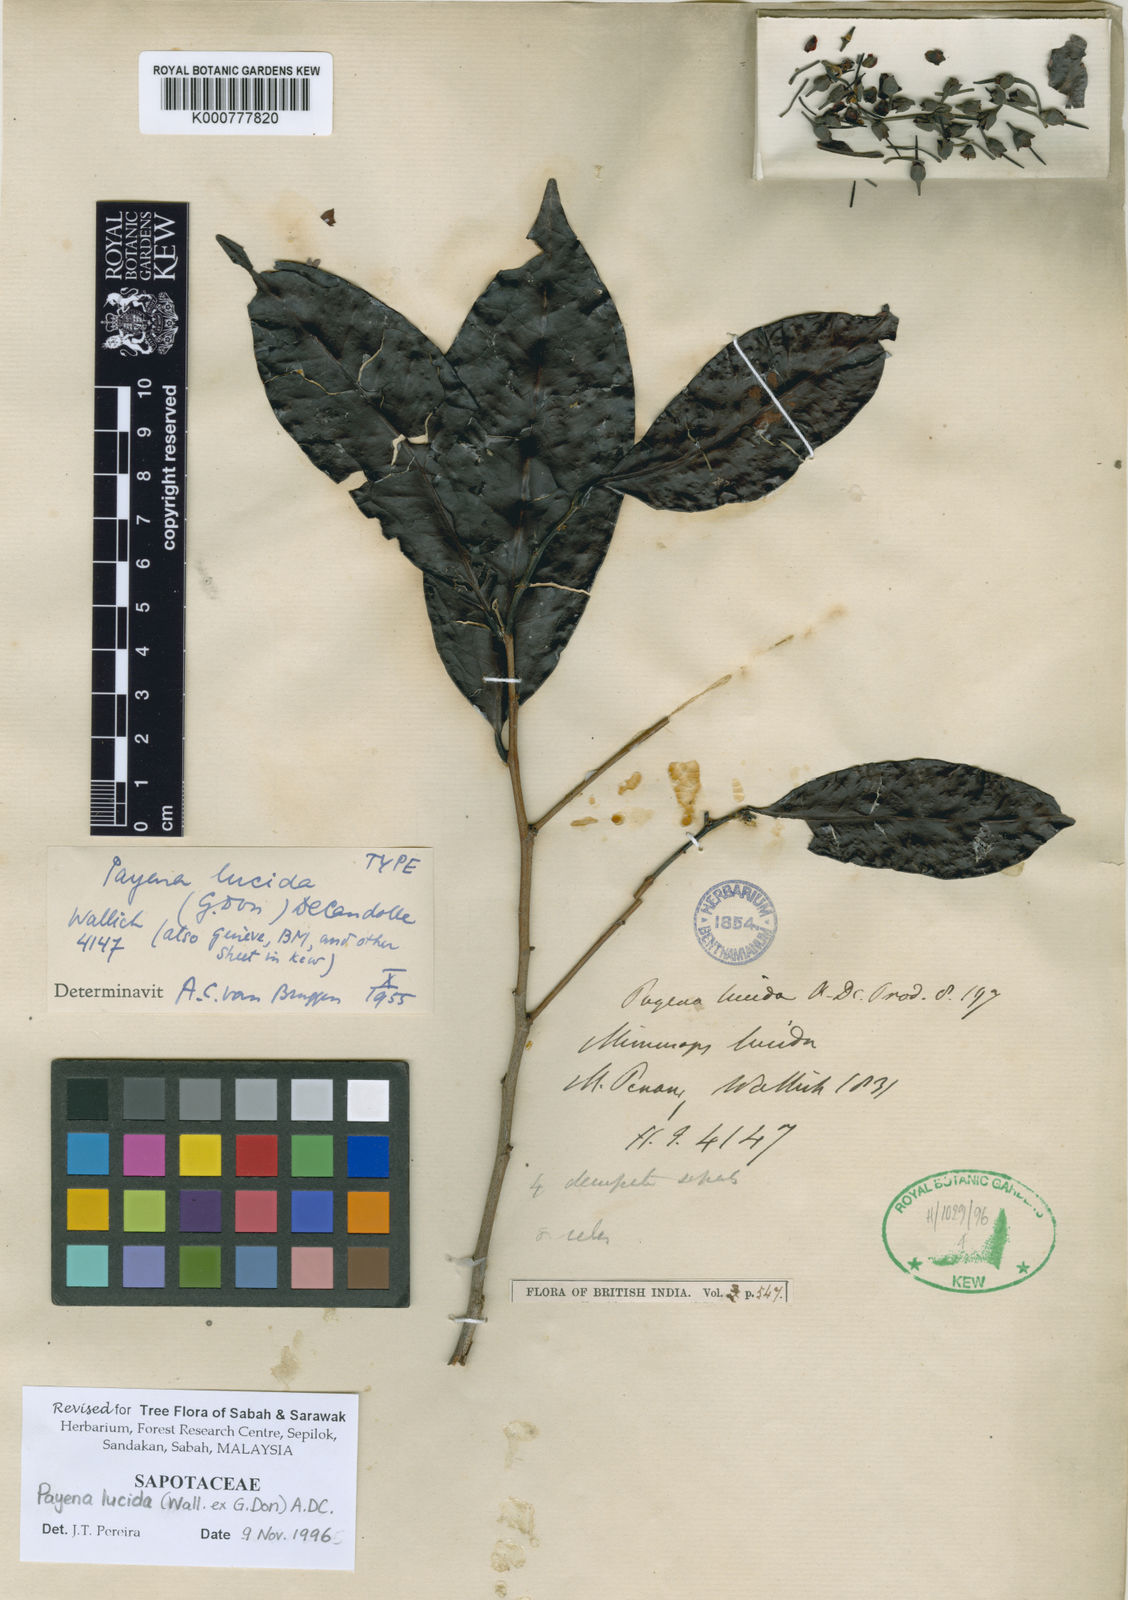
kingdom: Plantae
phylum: Tracheophyta
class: Magnoliopsida
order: Ericales
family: Sapotaceae
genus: Payena
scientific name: Payena lucida
